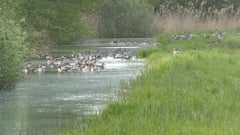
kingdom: Animalia
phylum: Chordata
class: Aves
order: Anseriformes
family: Anatidae
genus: Anser
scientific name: Anser anser
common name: Greylag goose
